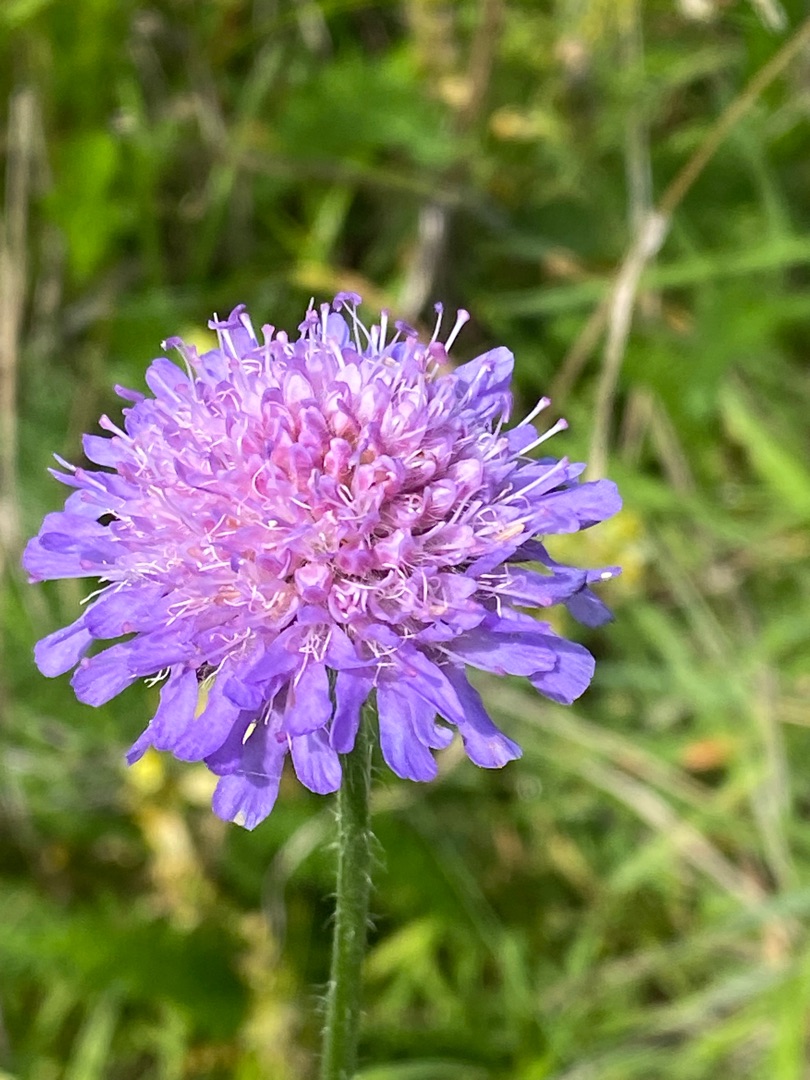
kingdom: Plantae
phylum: Tracheophyta
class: Magnoliopsida
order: Dipsacales
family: Caprifoliaceae
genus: Knautia
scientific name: Knautia arvensis
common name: Blåhat
